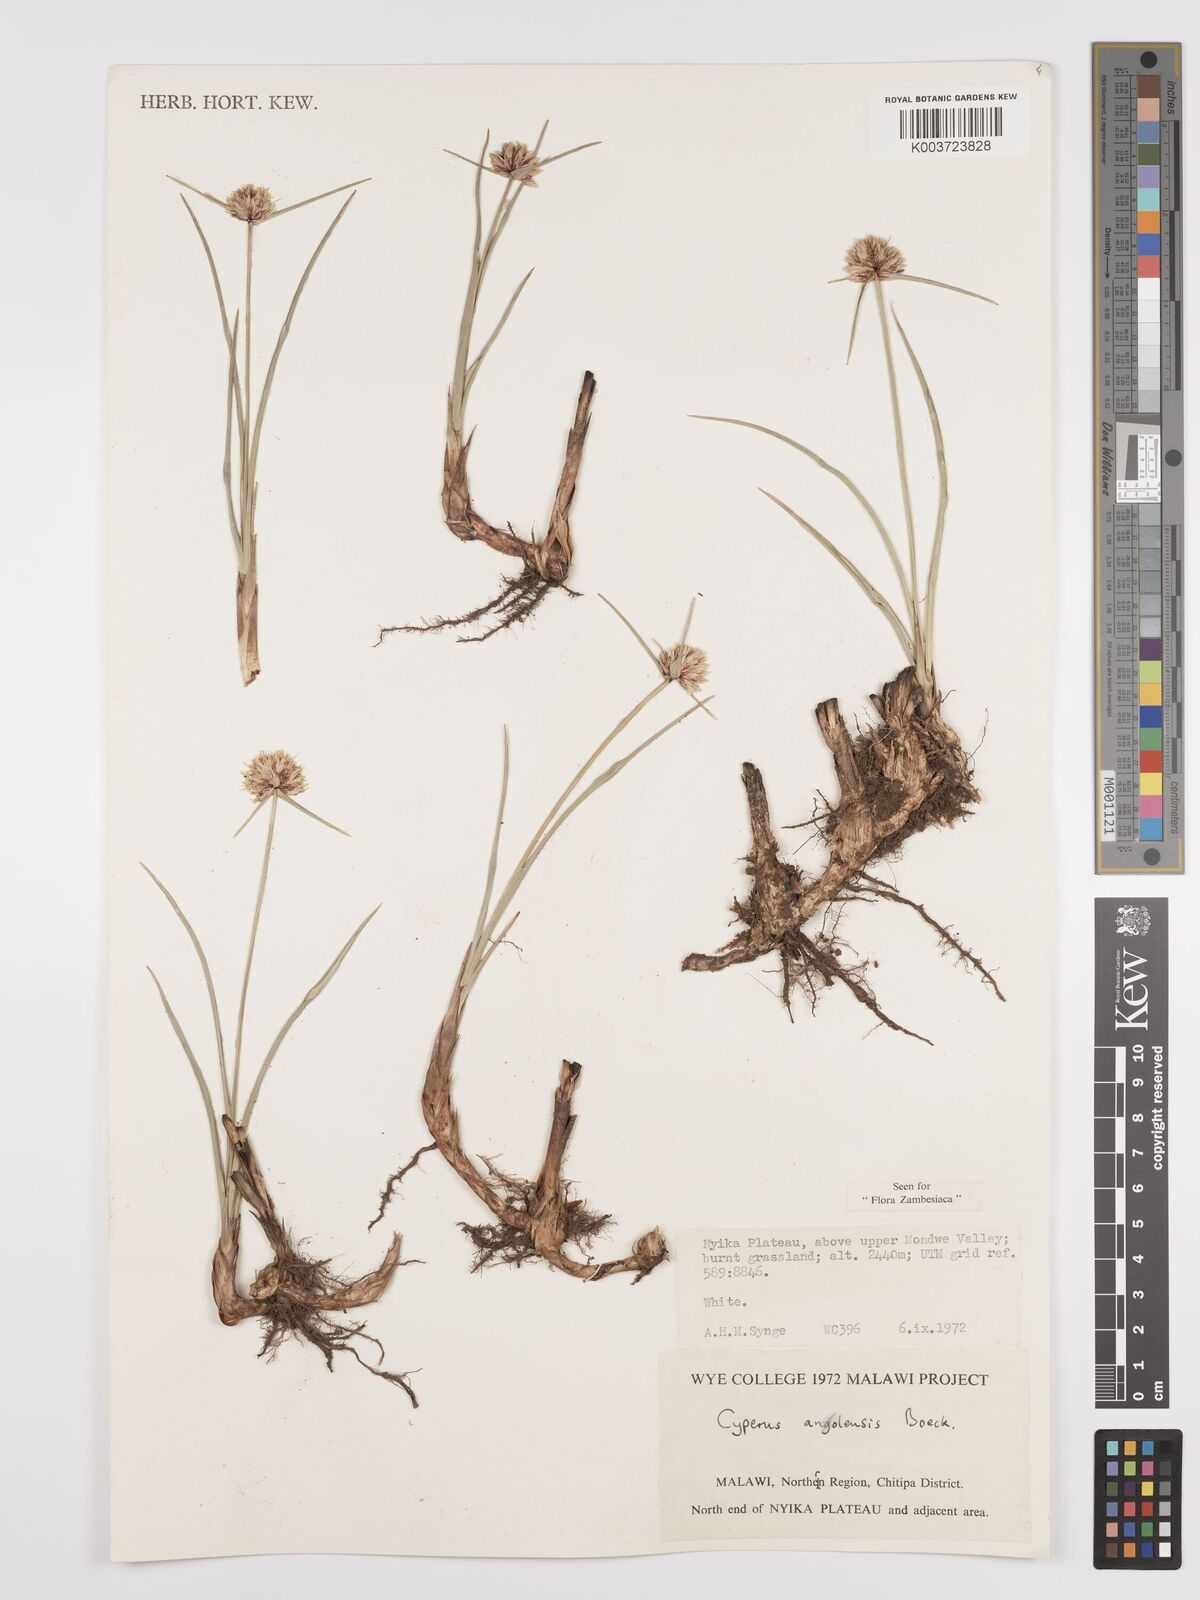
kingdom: Plantae
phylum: Tracheophyta
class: Liliopsida
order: Poales
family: Cyperaceae
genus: Cyperus
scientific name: Cyperus angolensis
